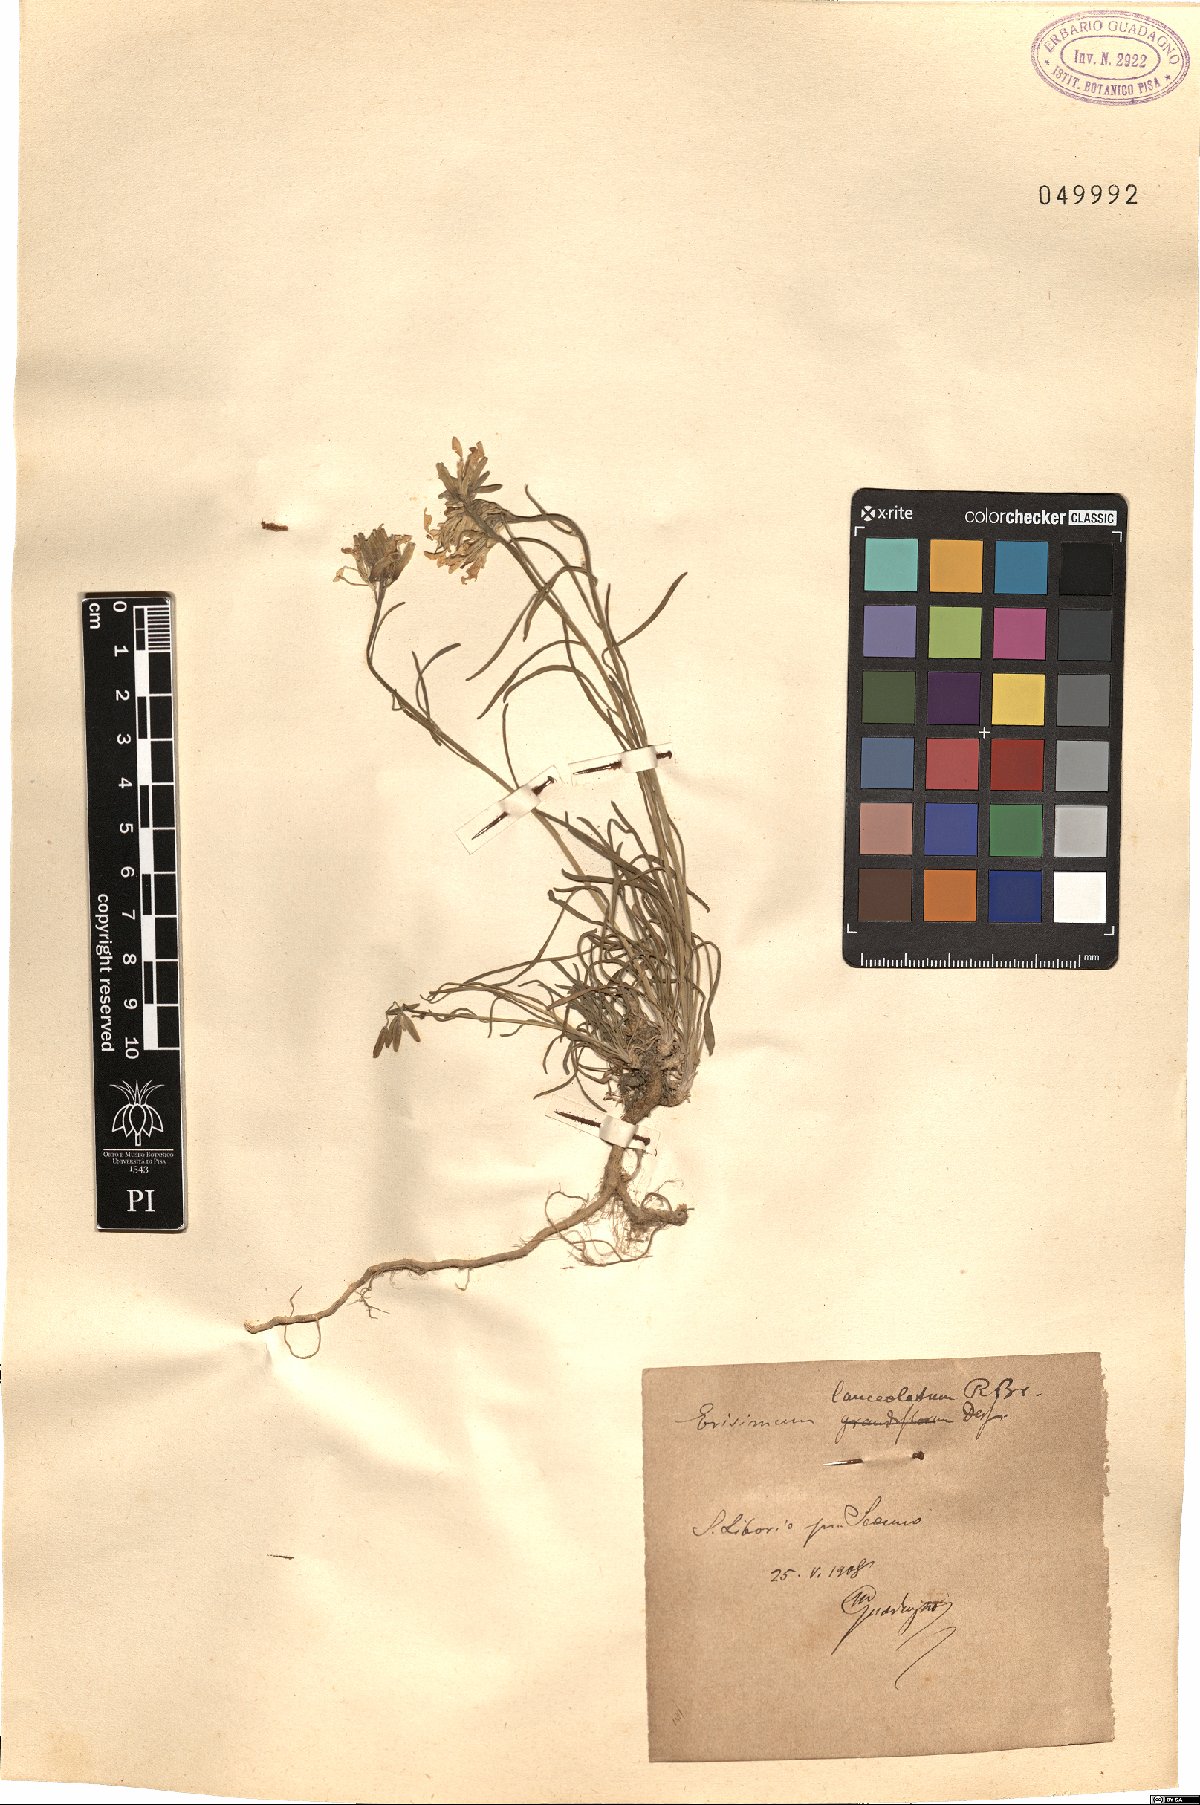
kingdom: Plantae
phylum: Tracheophyta
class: Magnoliopsida
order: Brassicales
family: Brassicaceae
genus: Erysimum
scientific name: Erysimum nevadense
